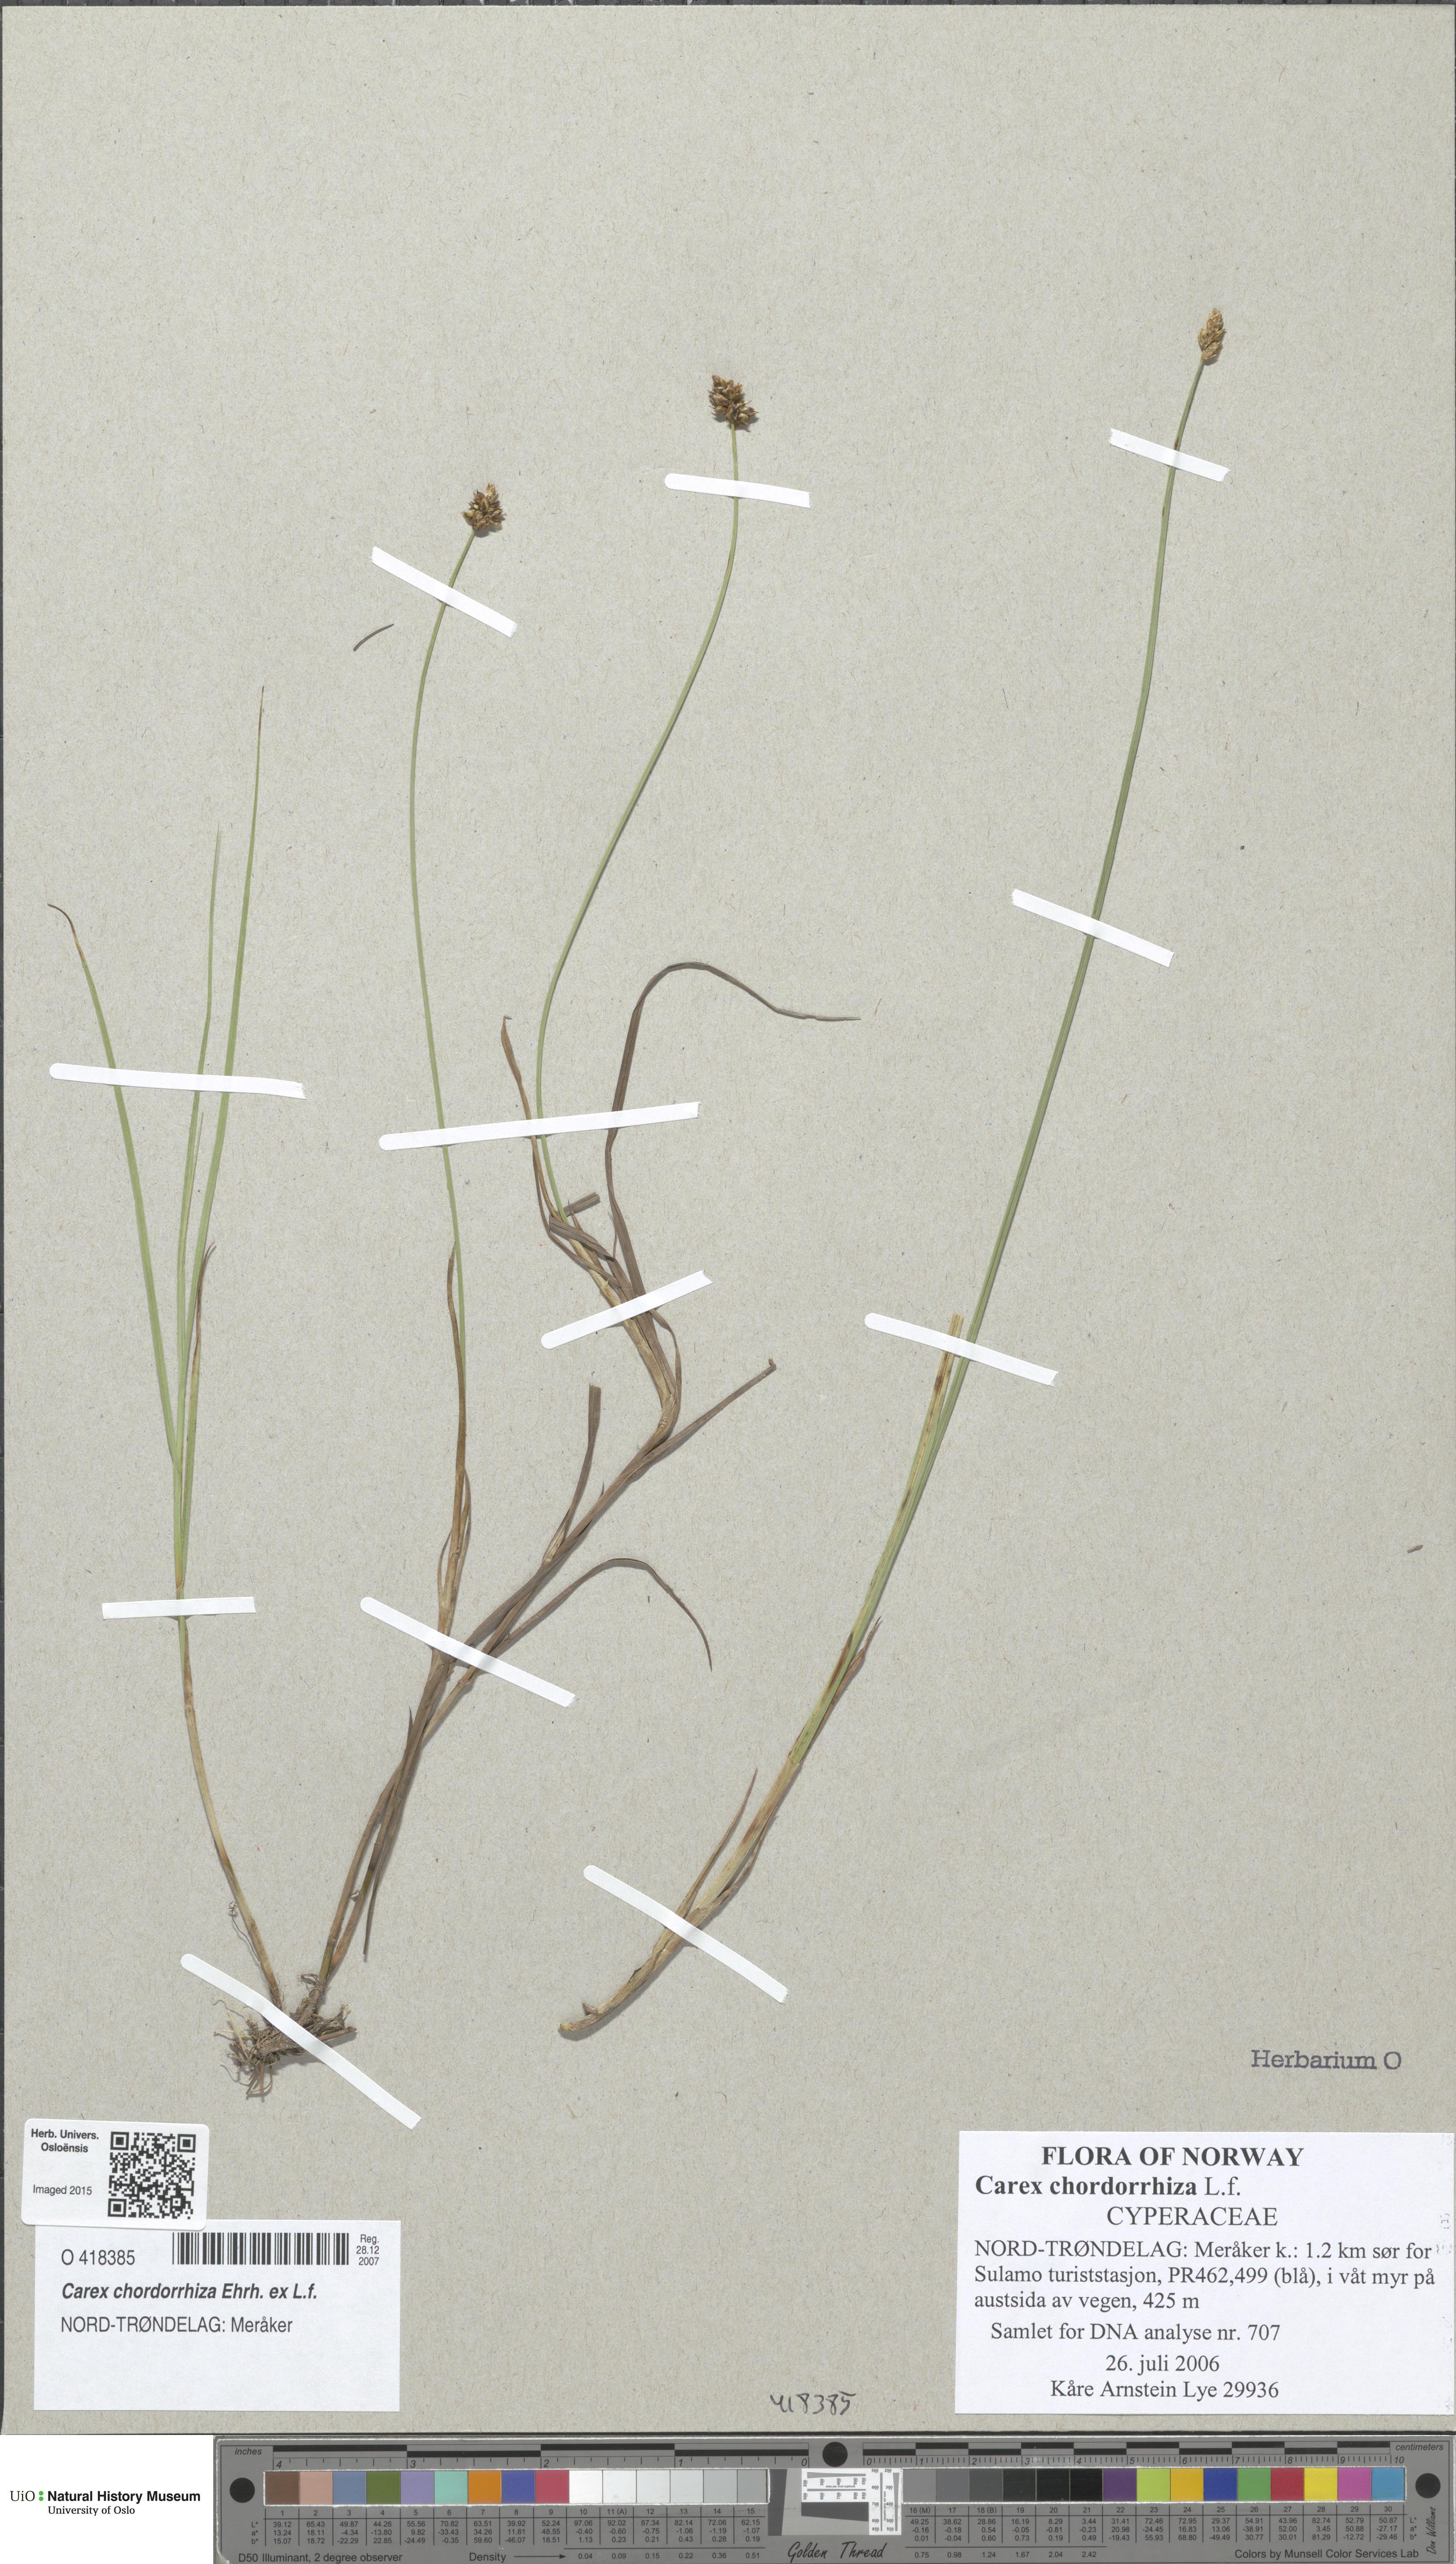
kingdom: Plantae
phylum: Tracheophyta
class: Liliopsida
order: Poales
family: Cyperaceae
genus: Carex
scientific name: Carex chordorrhiza
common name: String sedge
